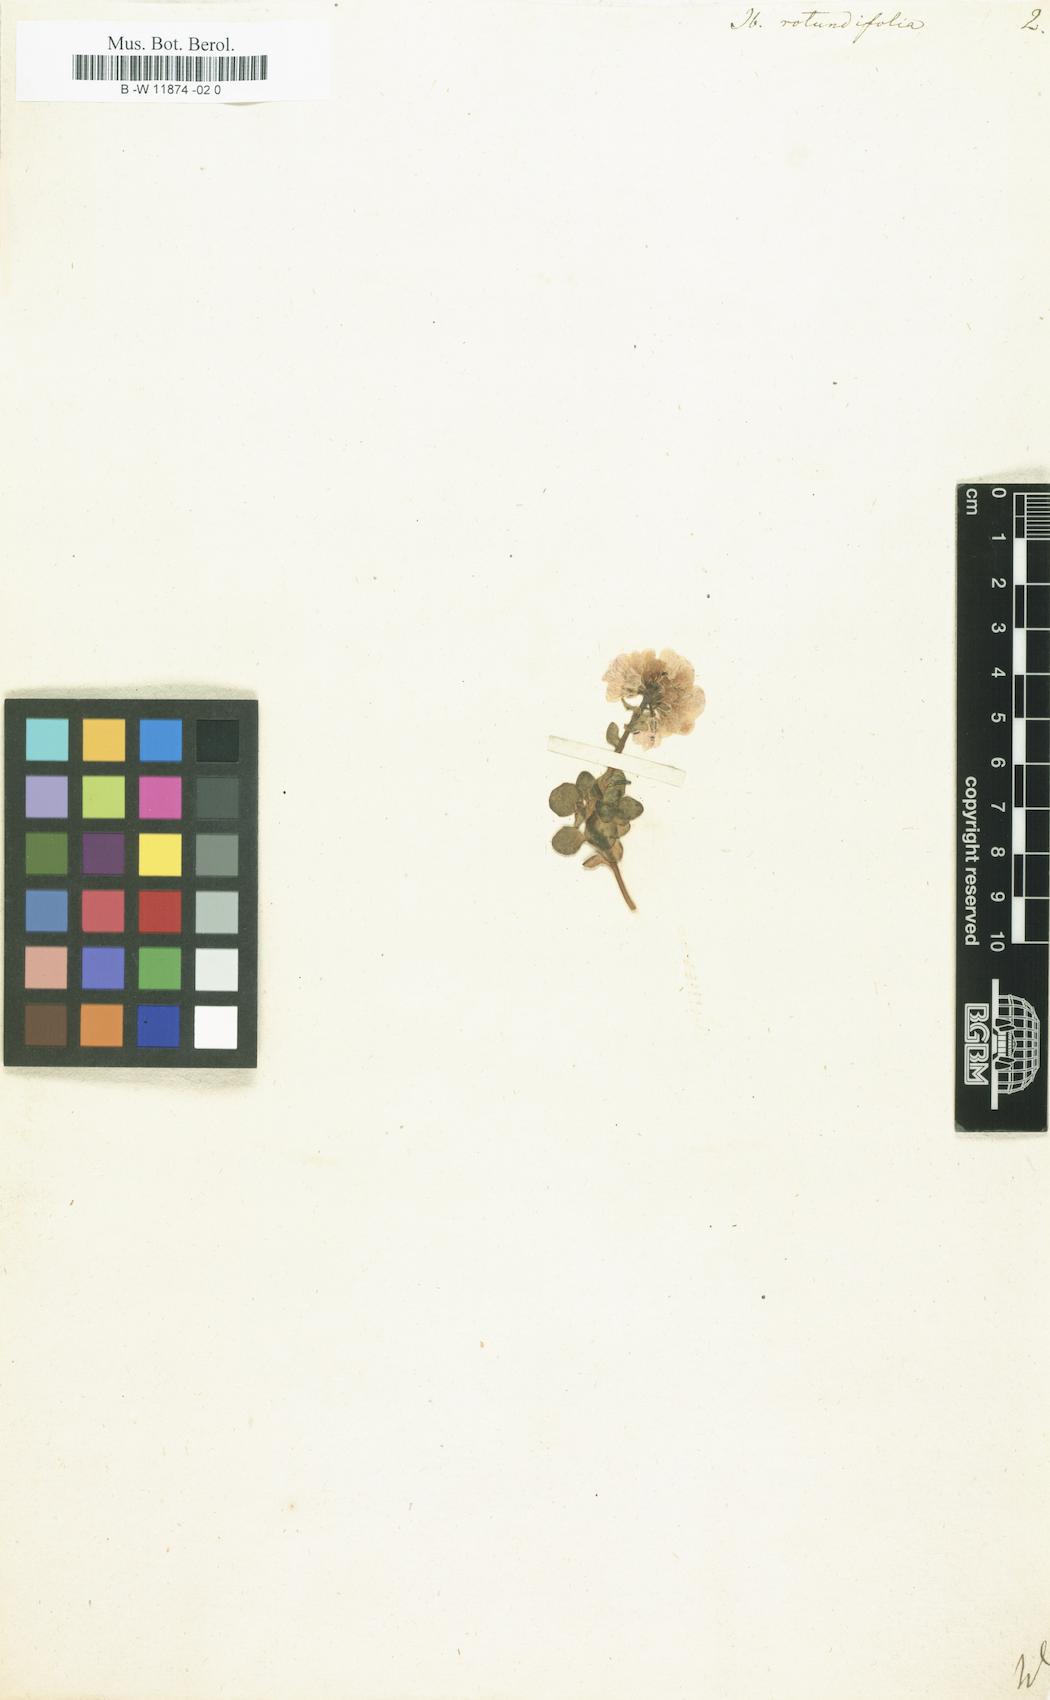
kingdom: Plantae
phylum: Tracheophyta
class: Magnoliopsida
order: Brassicales
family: Brassicaceae
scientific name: Brassicaceae
